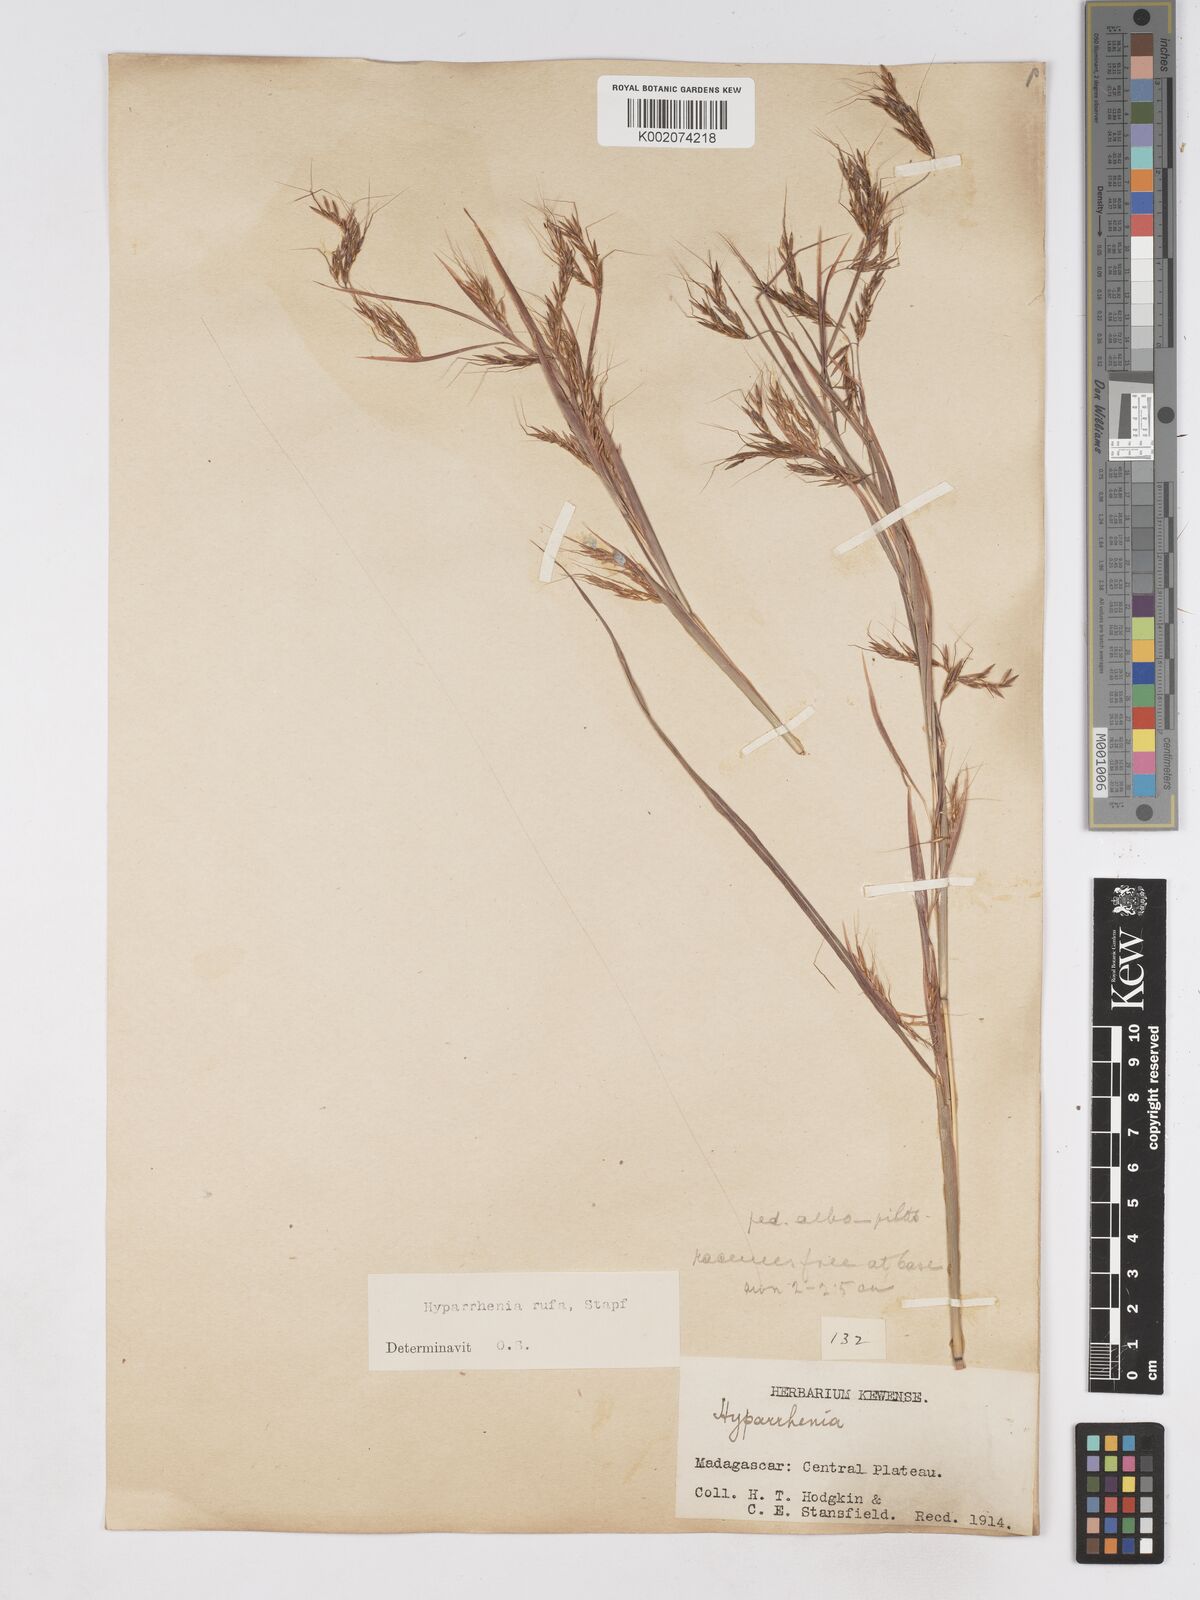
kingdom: Plantae
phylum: Tracheophyta
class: Liliopsida
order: Poales
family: Poaceae
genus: Hyparrhenia
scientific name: Hyparrhenia rufa
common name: Jaraguagrass
